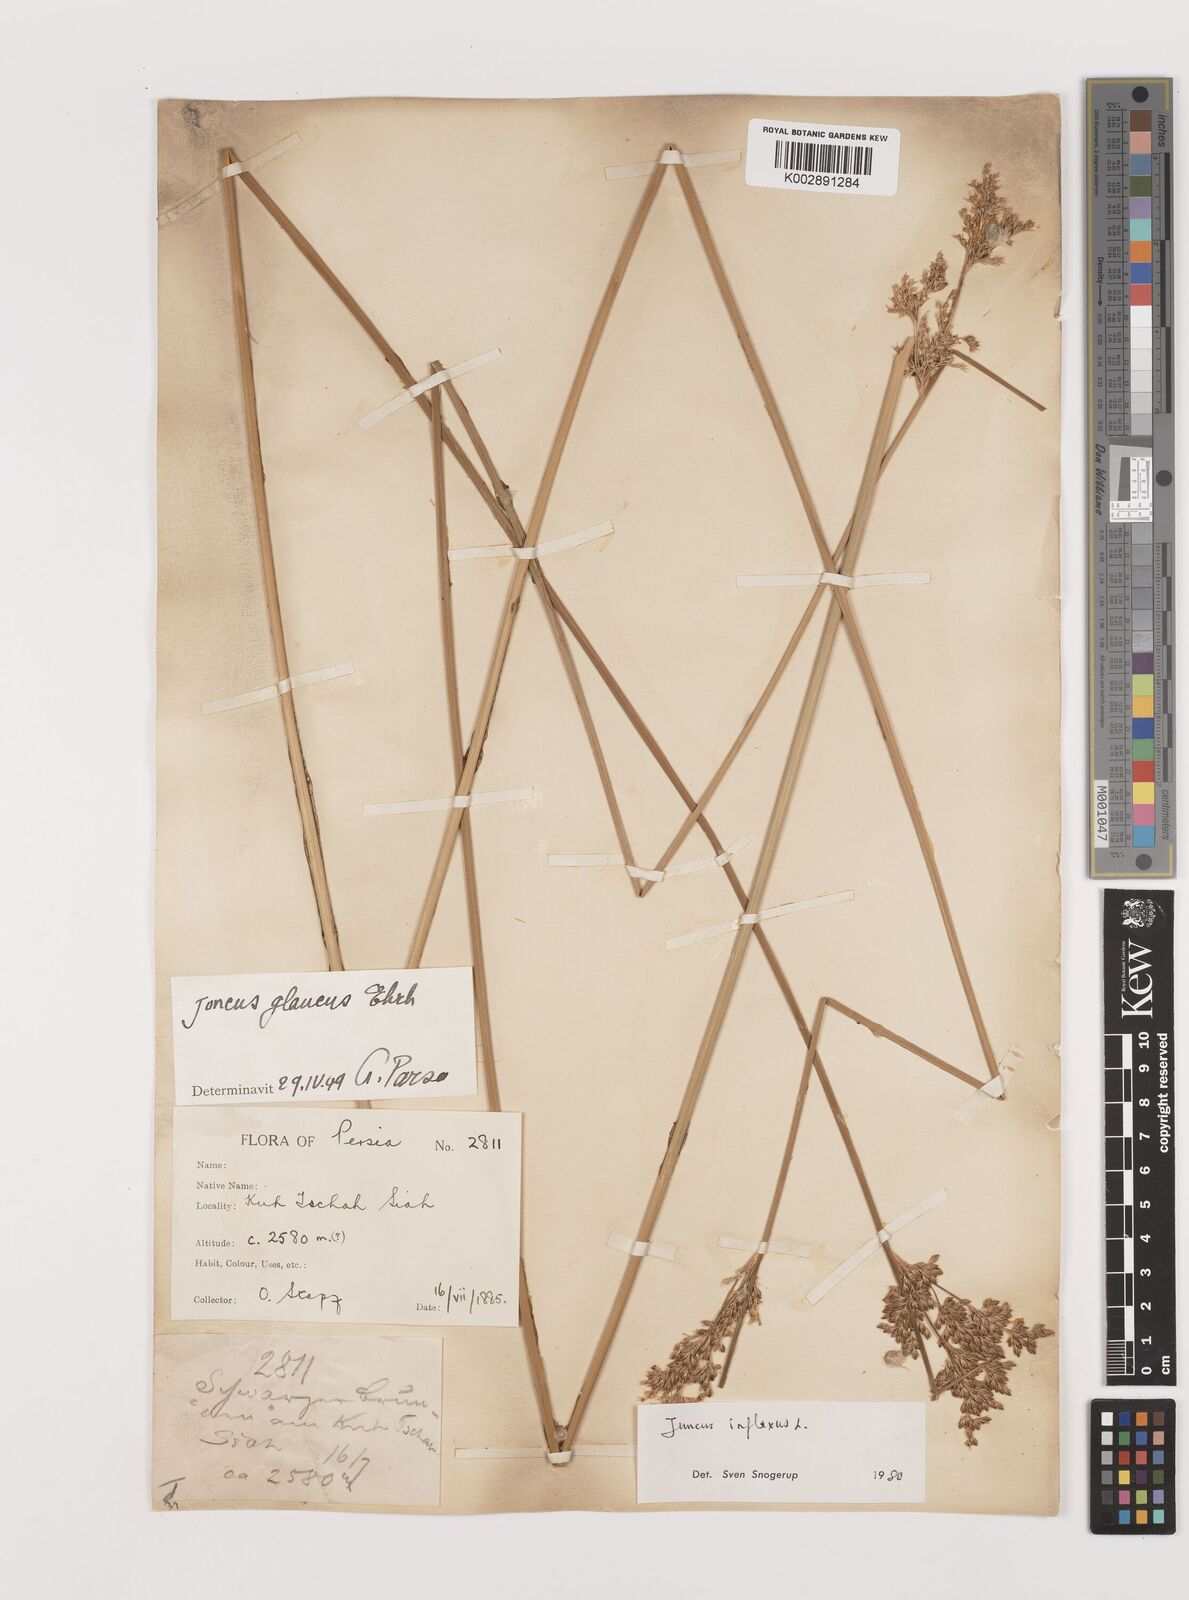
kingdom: Plantae
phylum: Tracheophyta
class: Liliopsida
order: Poales
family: Juncaceae
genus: Juncus
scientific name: Juncus inflexus
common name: Hard rush
